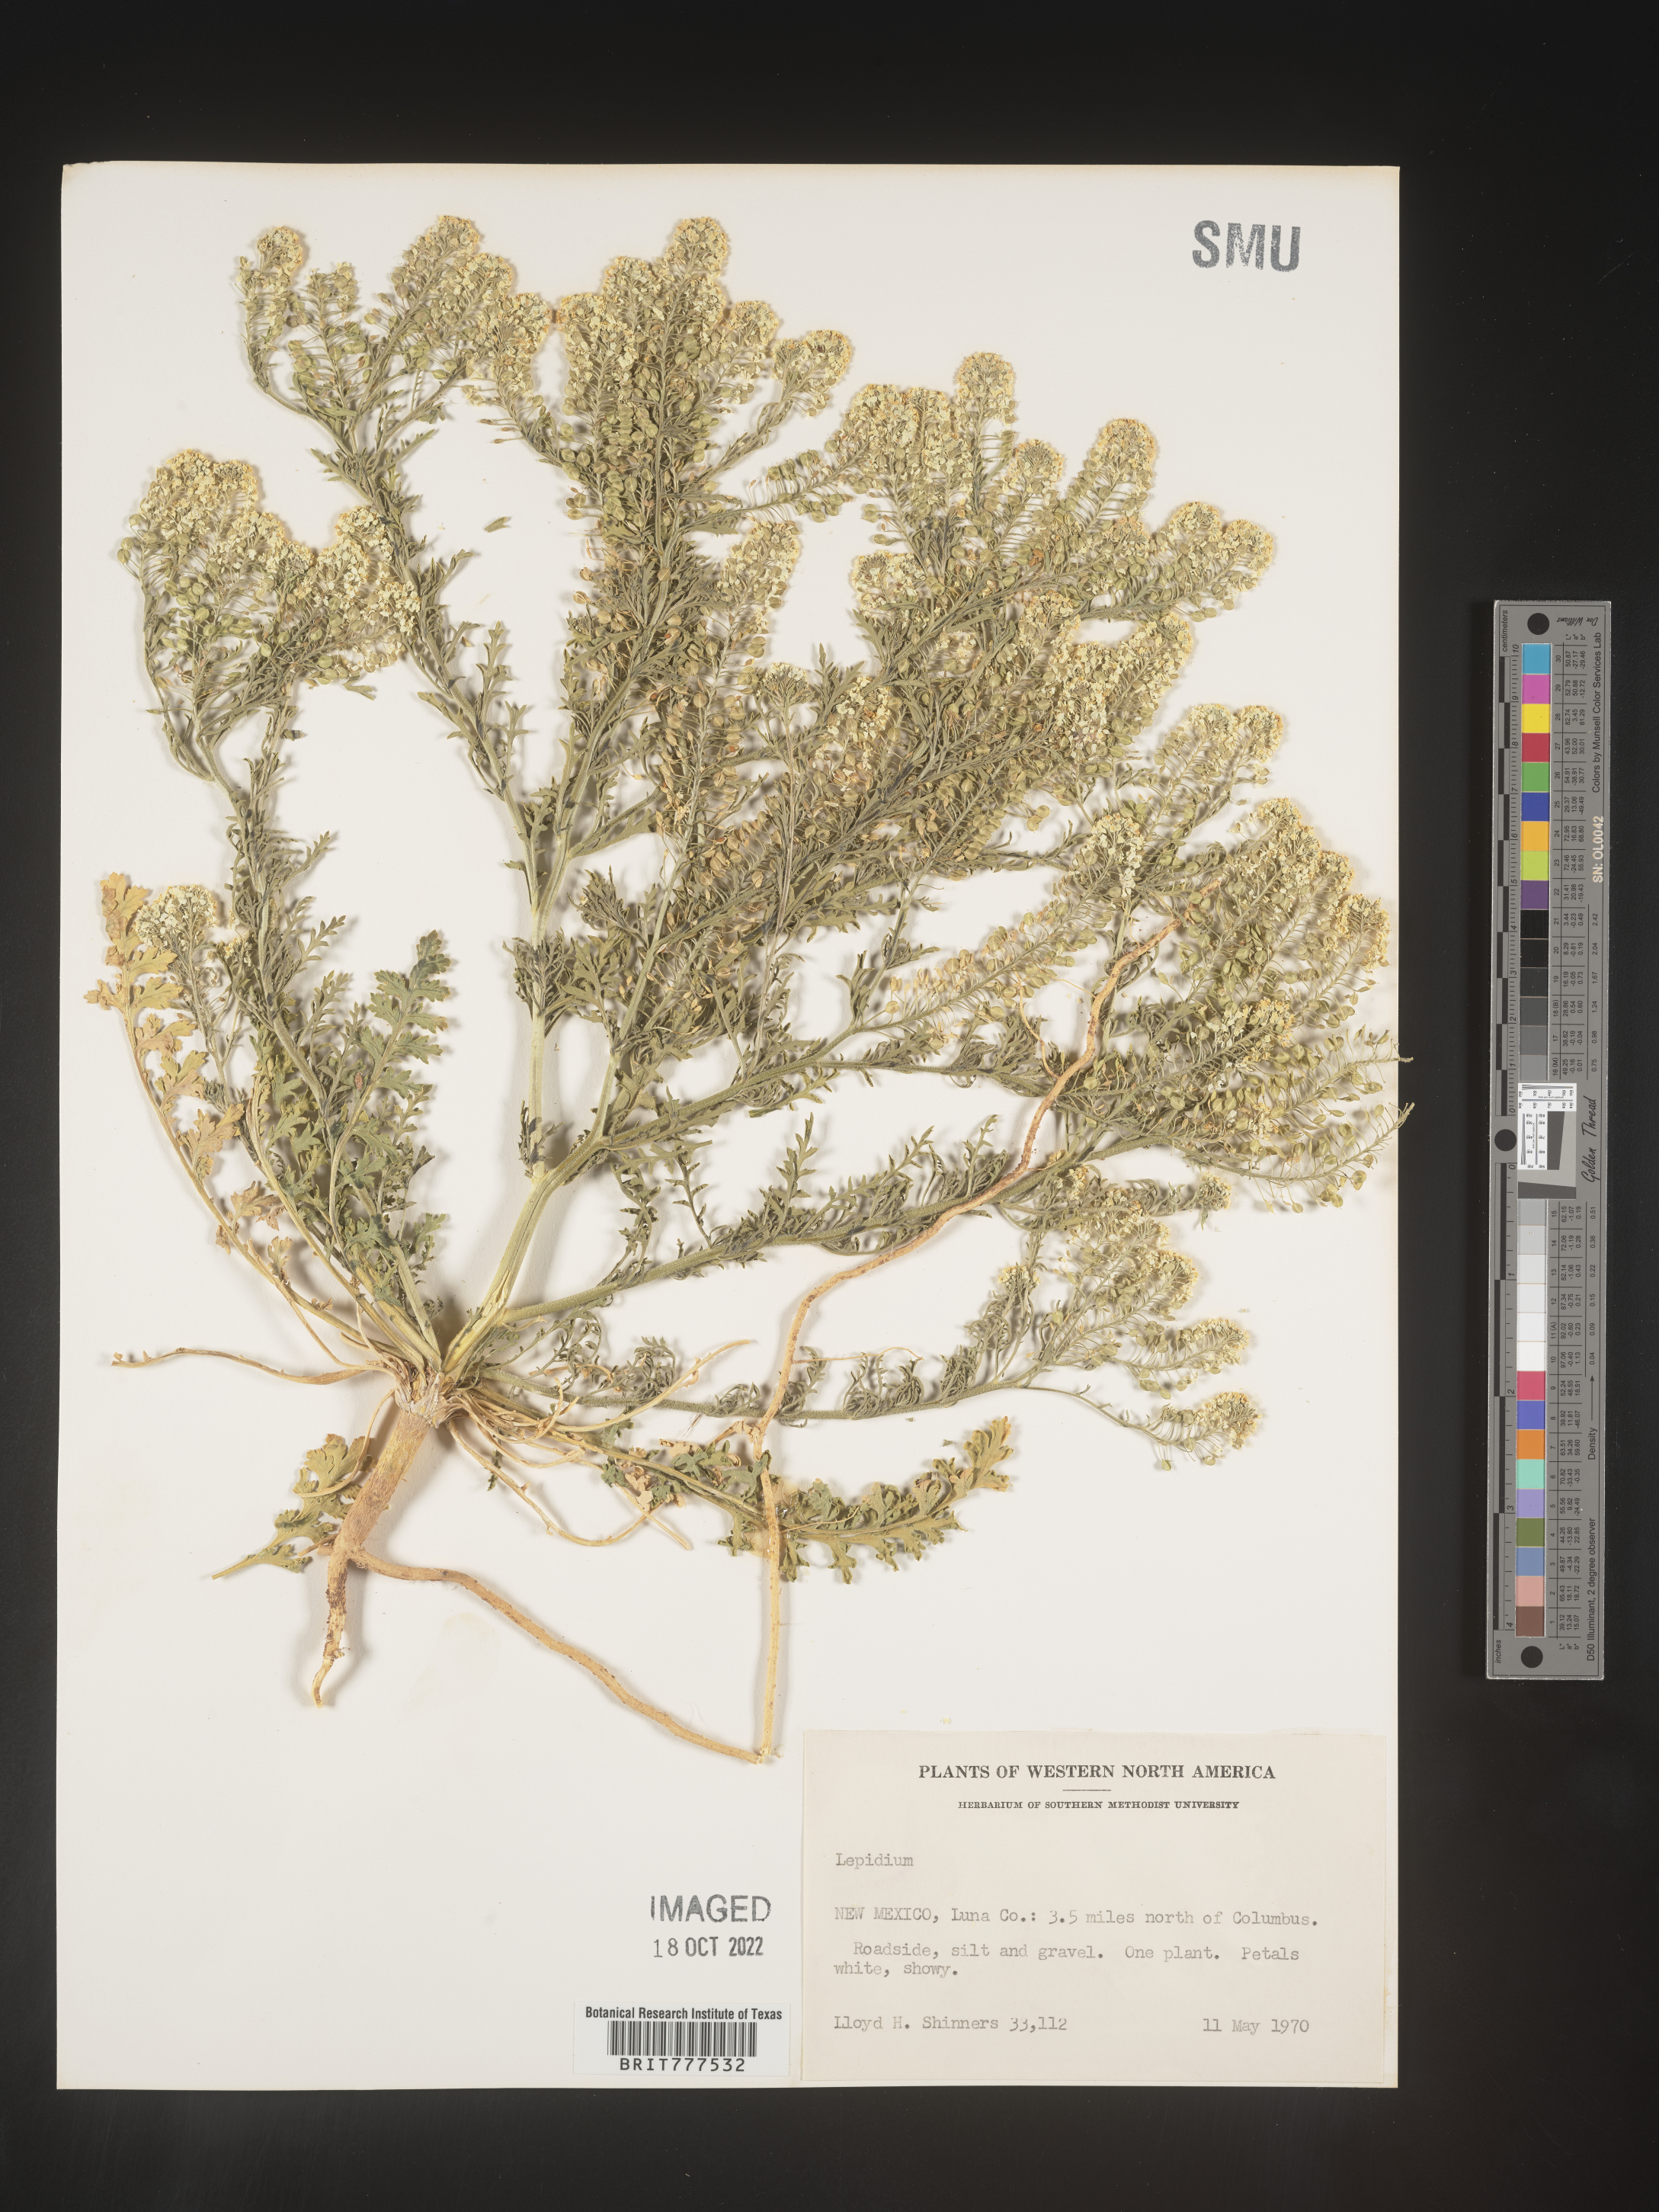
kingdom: Plantae
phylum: Tracheophyta
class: Magnoliopsida
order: Brassicales
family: Brassicaceae
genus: Lepidium
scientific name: Lepidium
